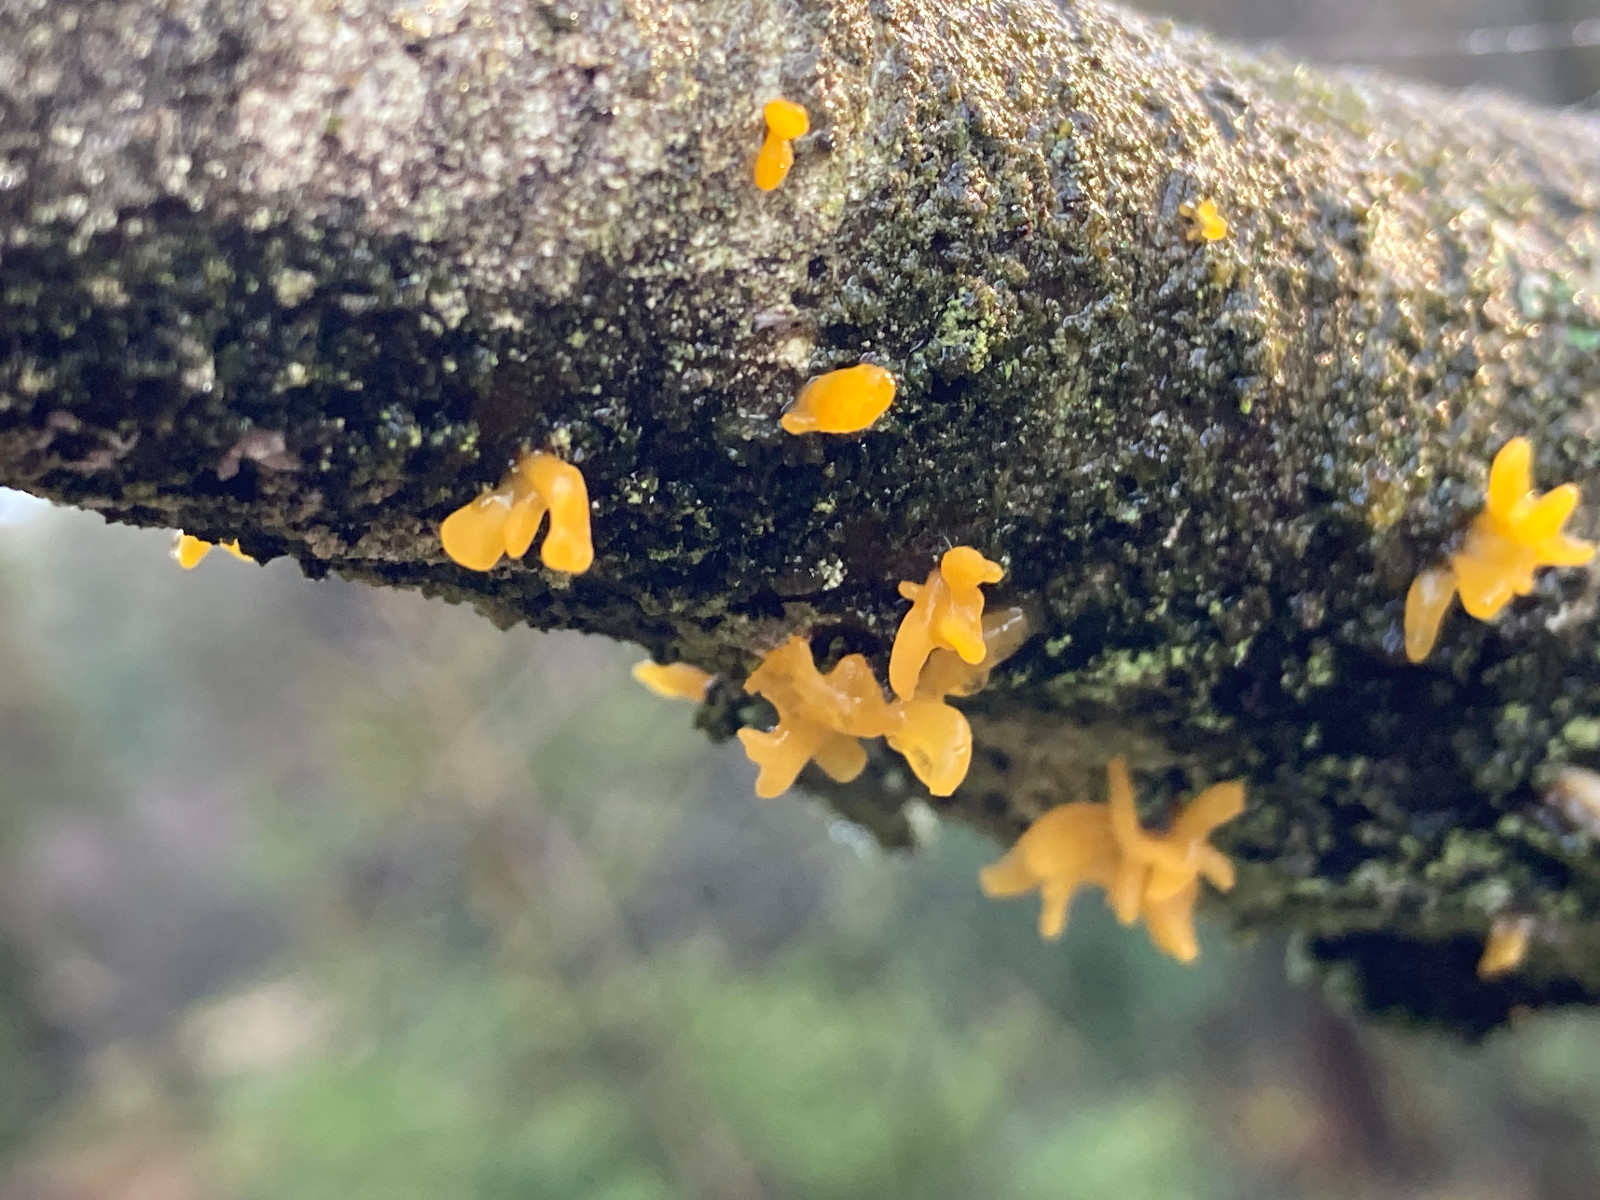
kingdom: Fungi
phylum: Basidiomycota
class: Dacrymycetes
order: Dacrymycetales
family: Dacrymycetaceae
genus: Calocera
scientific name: Calocera cornea
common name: liden guldgaffel
